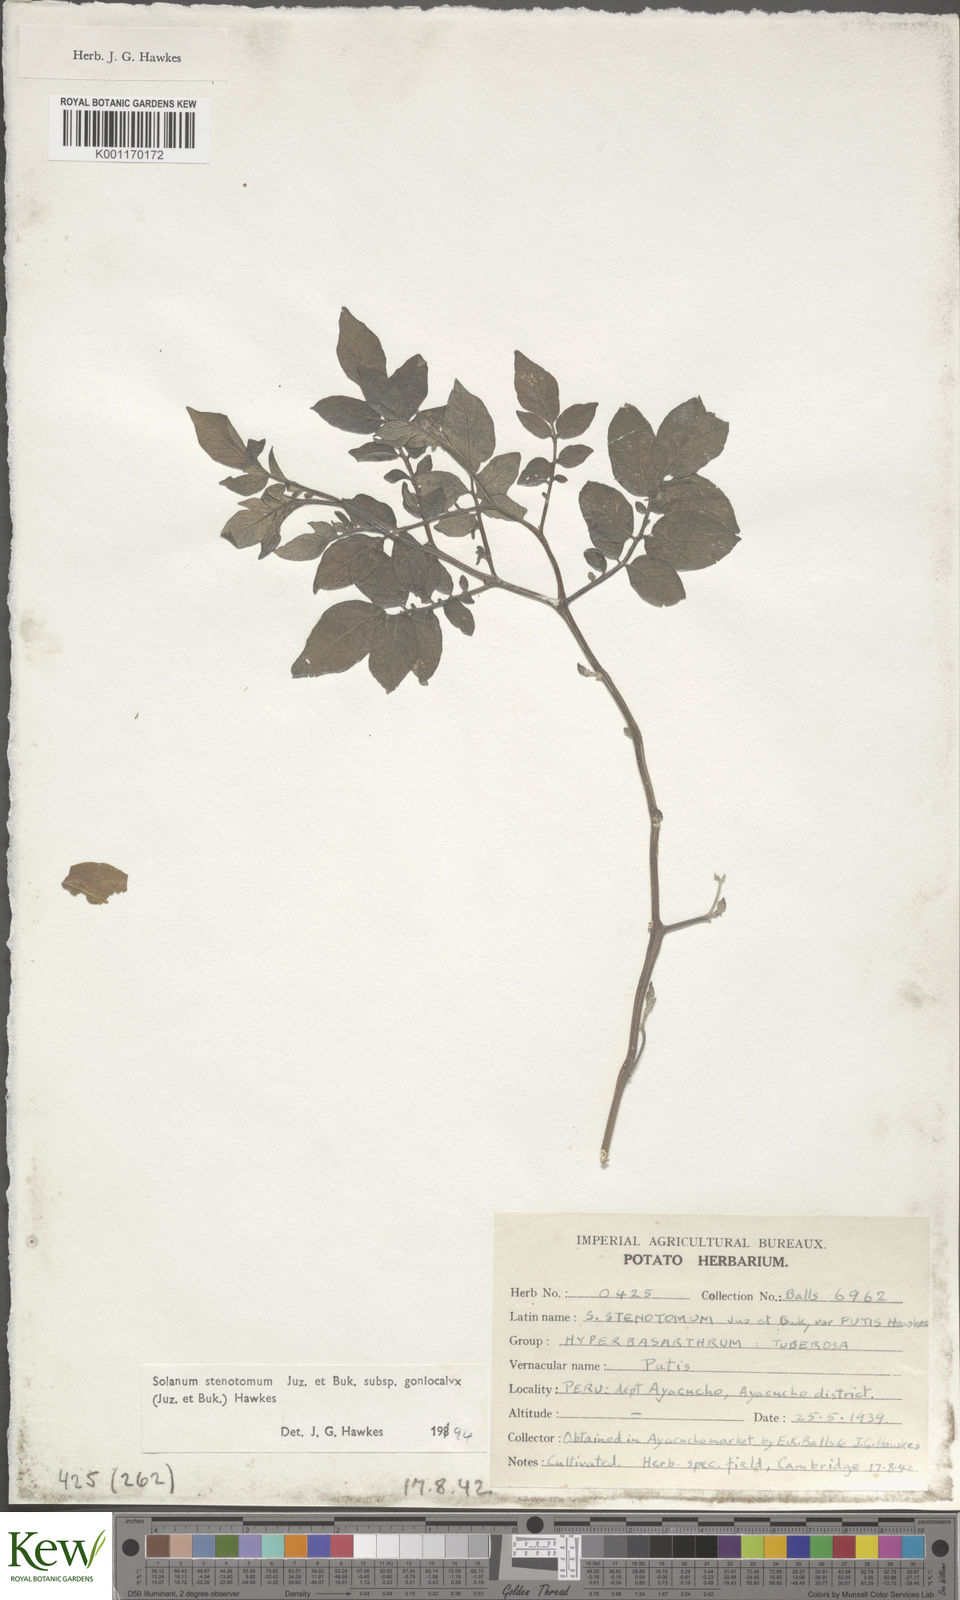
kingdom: Plantae
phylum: Tracheophyta
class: Magnoliopsida
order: Solanales
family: Solanaceae
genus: Solanum
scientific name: Solanum tuberosum
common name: Potato
